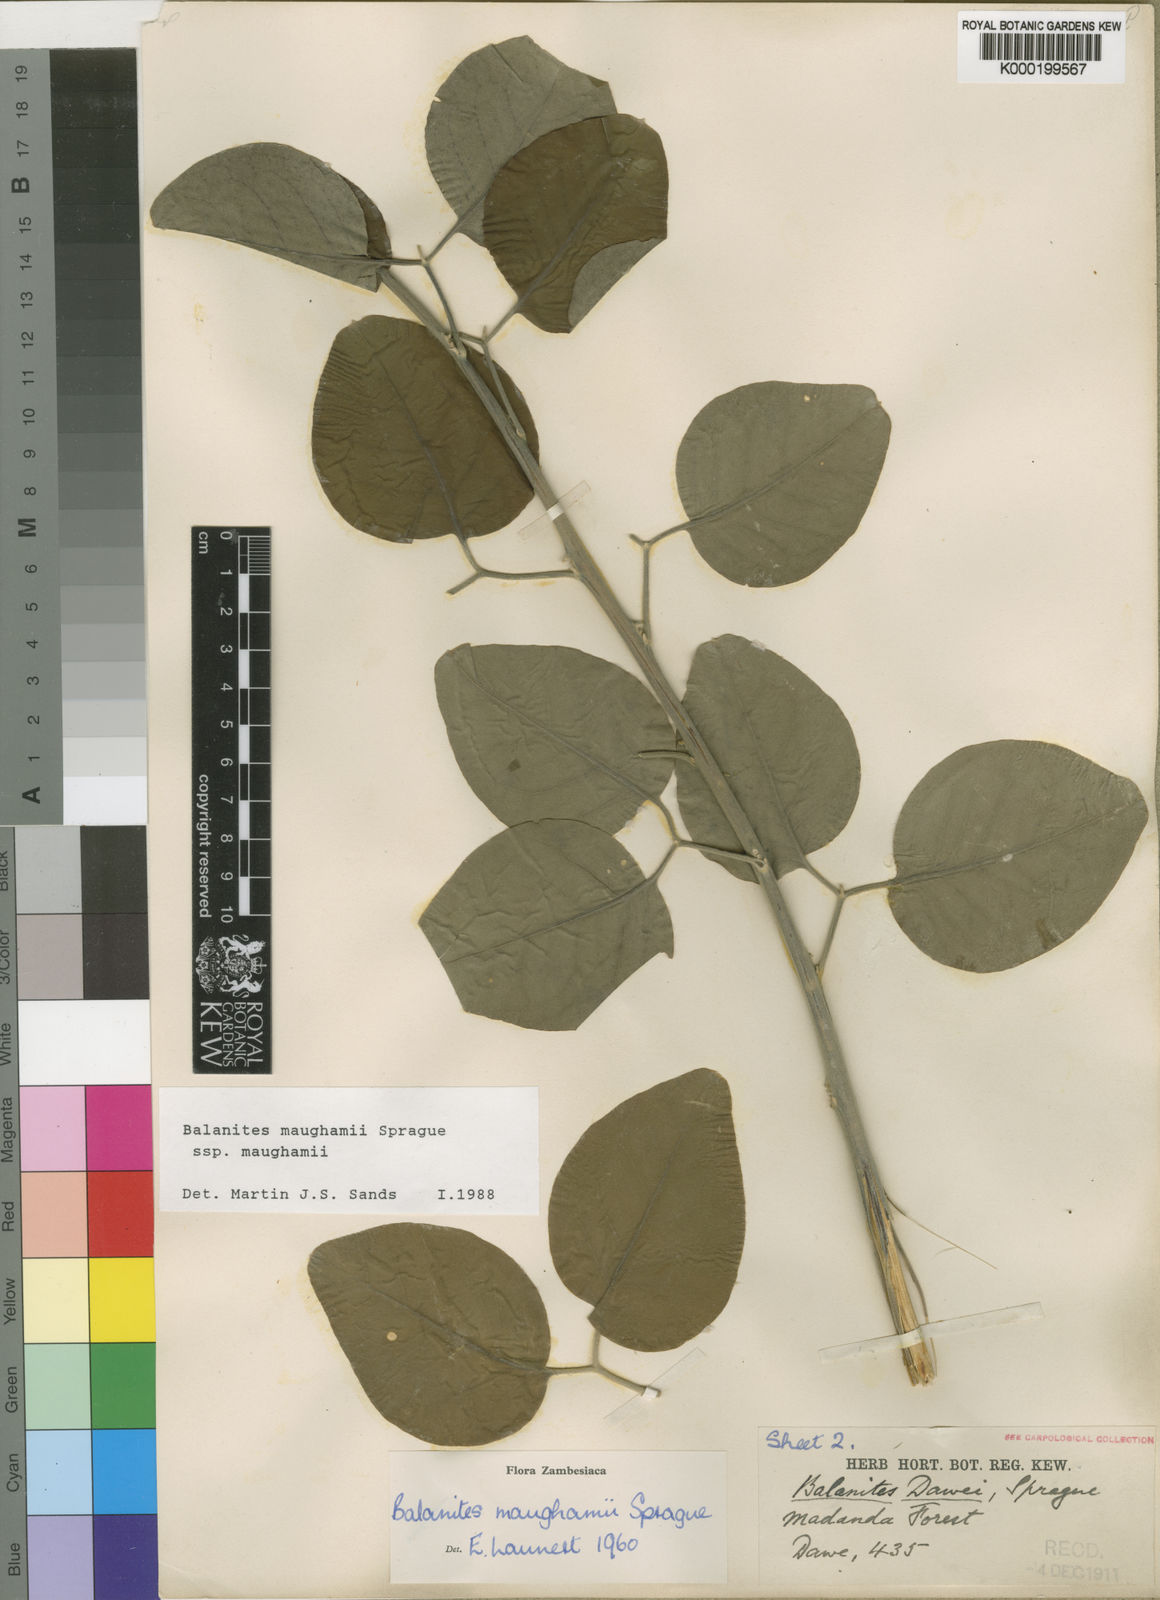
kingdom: Plantae
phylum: Tracheophyta
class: Magnoliopsida
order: Zygophyllales
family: Zygophyllaceae
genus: Balanites
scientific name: Balanites maughamii
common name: Torchwood
